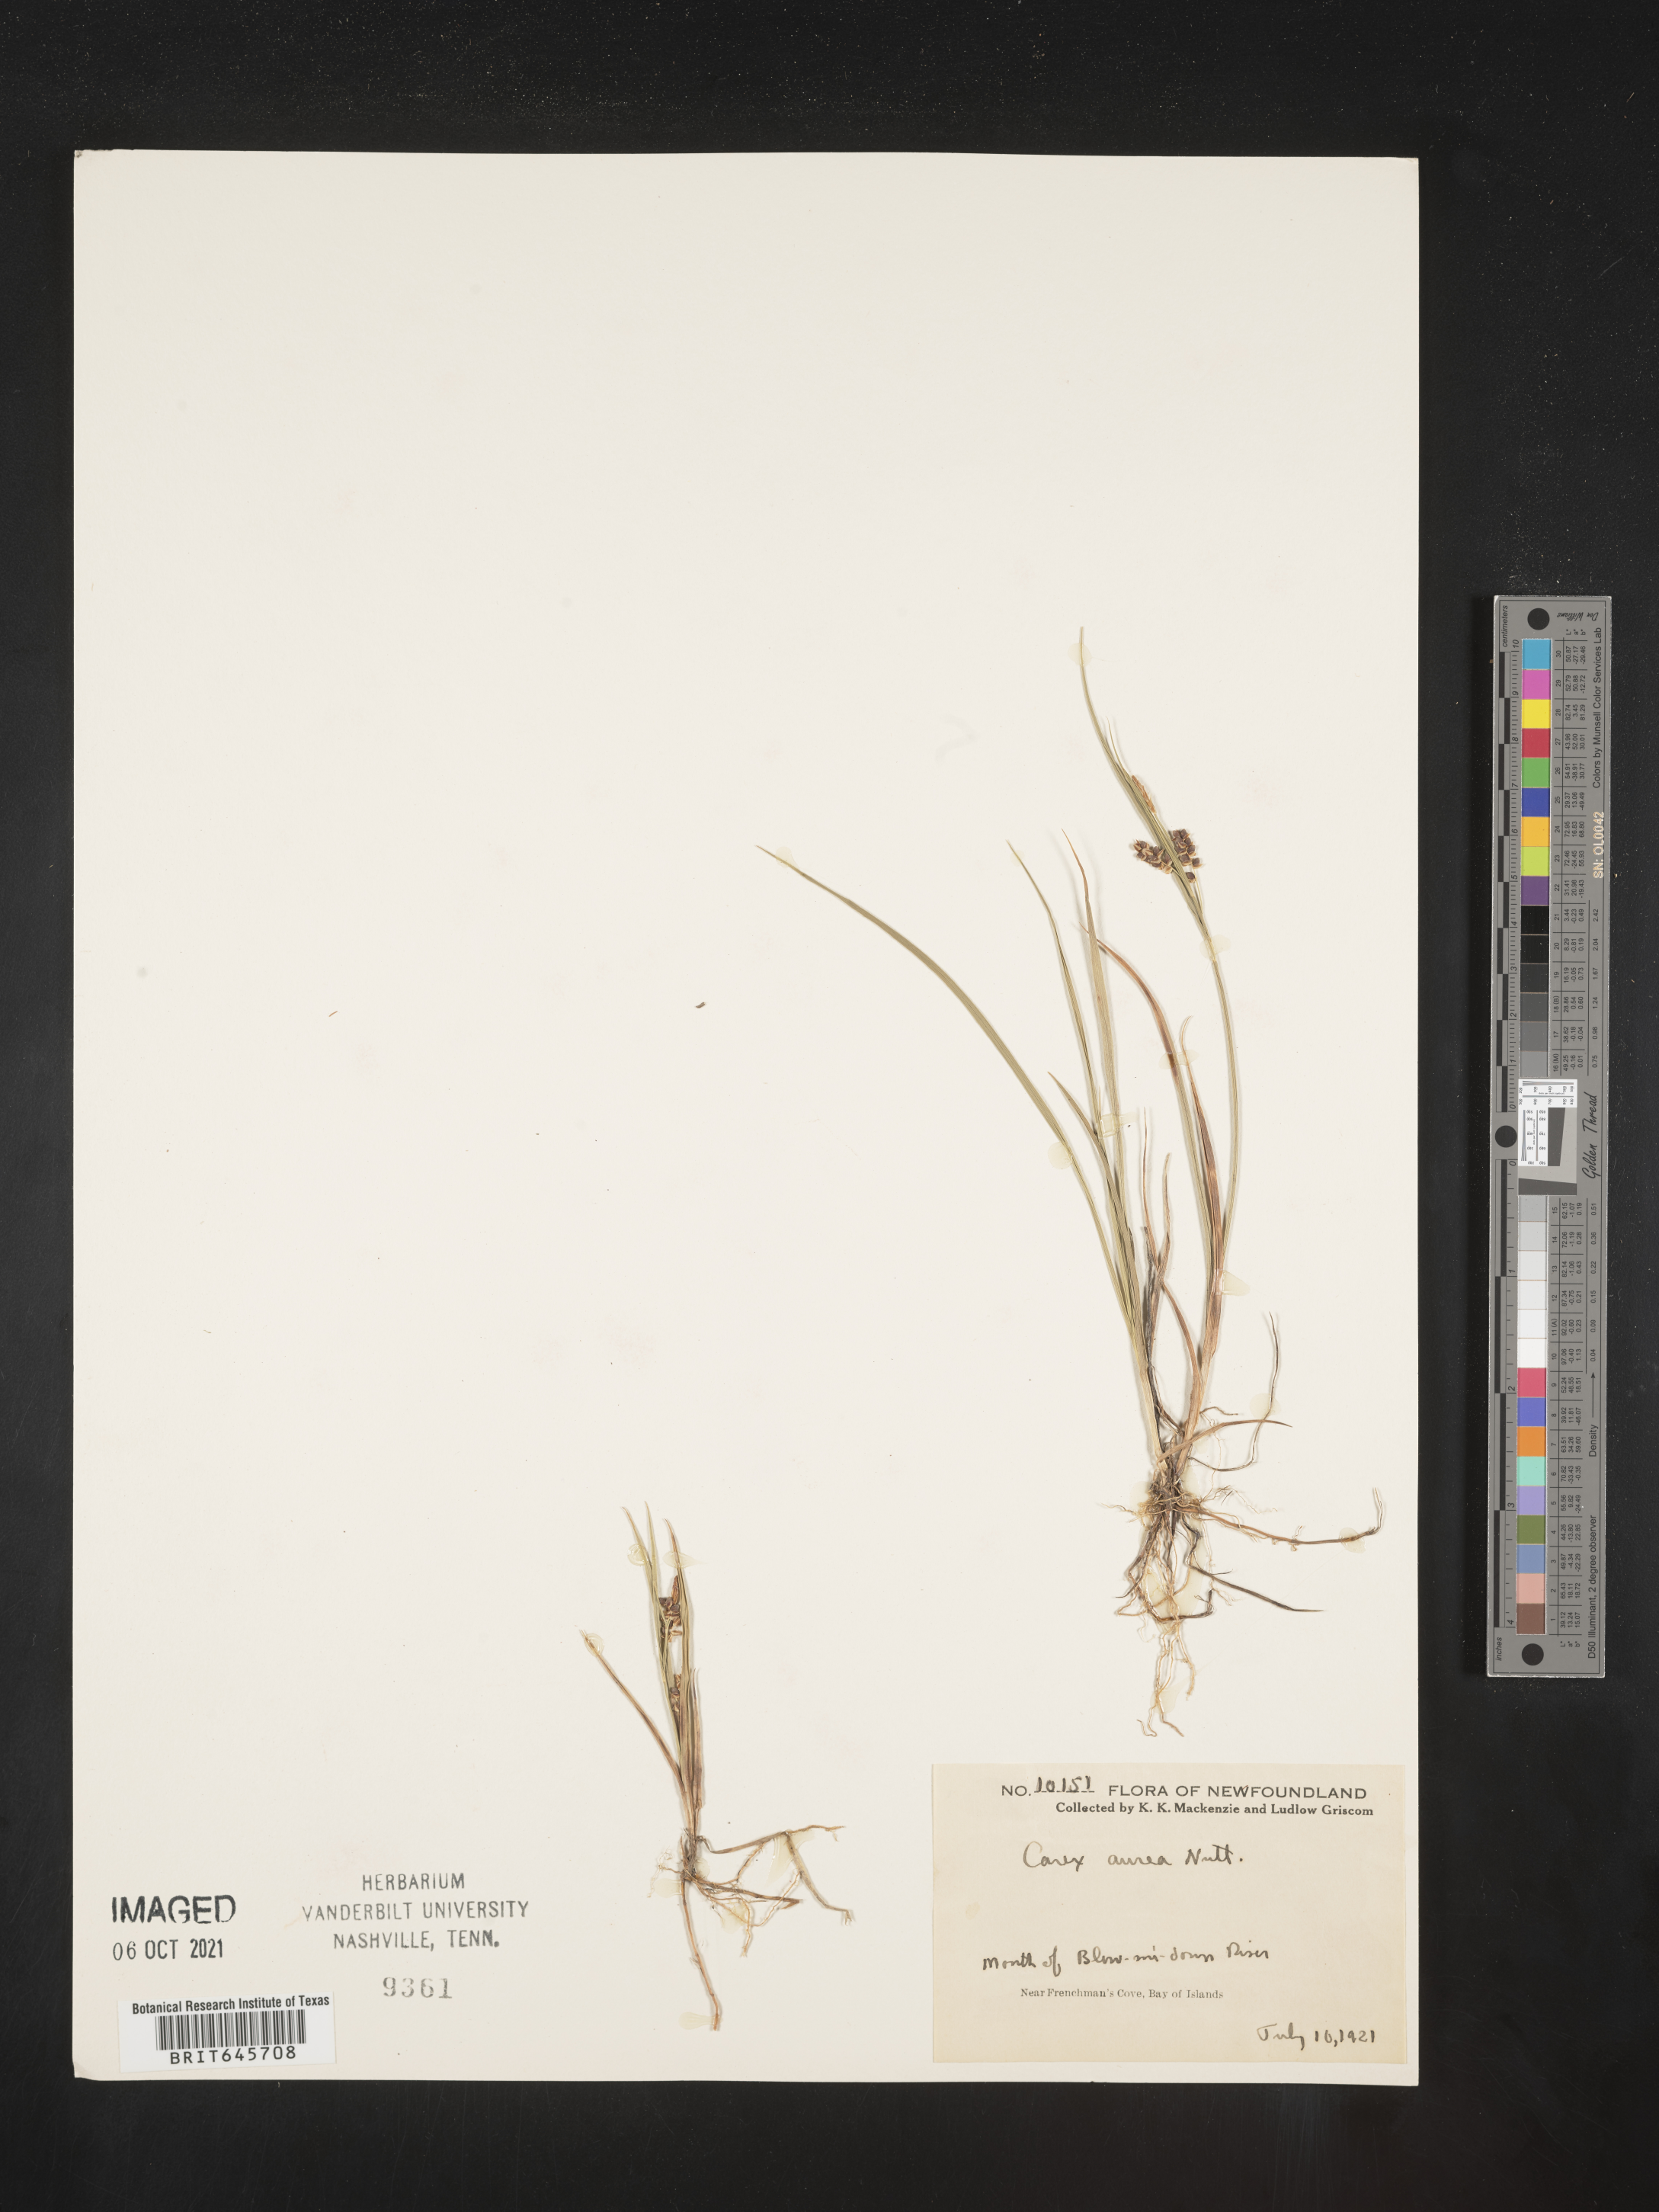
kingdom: Plantae
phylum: Tracheophyta
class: Liliopsida
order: Poales
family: Cyperaceae
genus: Carex
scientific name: Carex aurea
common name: Golden sedge
